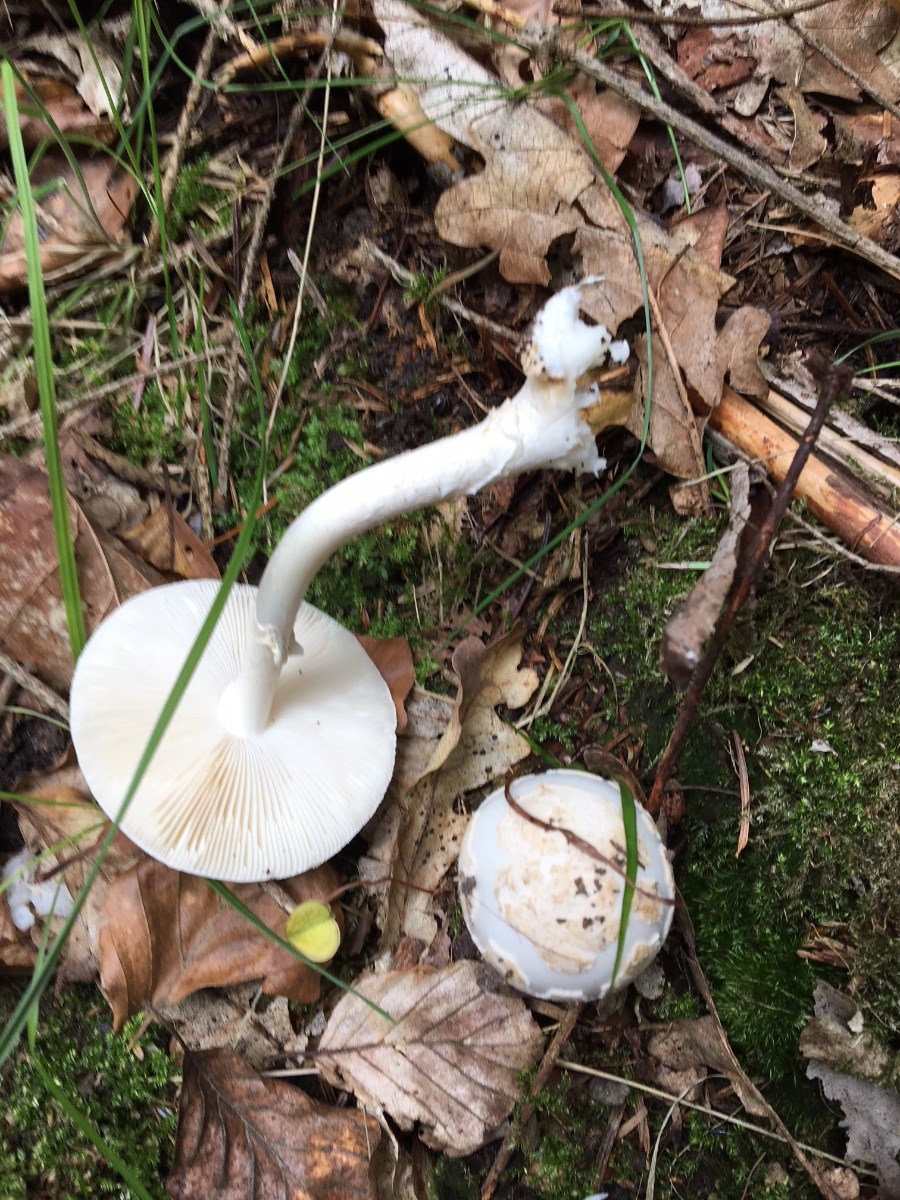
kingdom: Fungi
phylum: Basidiomycota
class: Agaricomycetes
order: Agaricales
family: Amanitaceae
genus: Amanita
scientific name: Amanita citrina
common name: False death-cap
